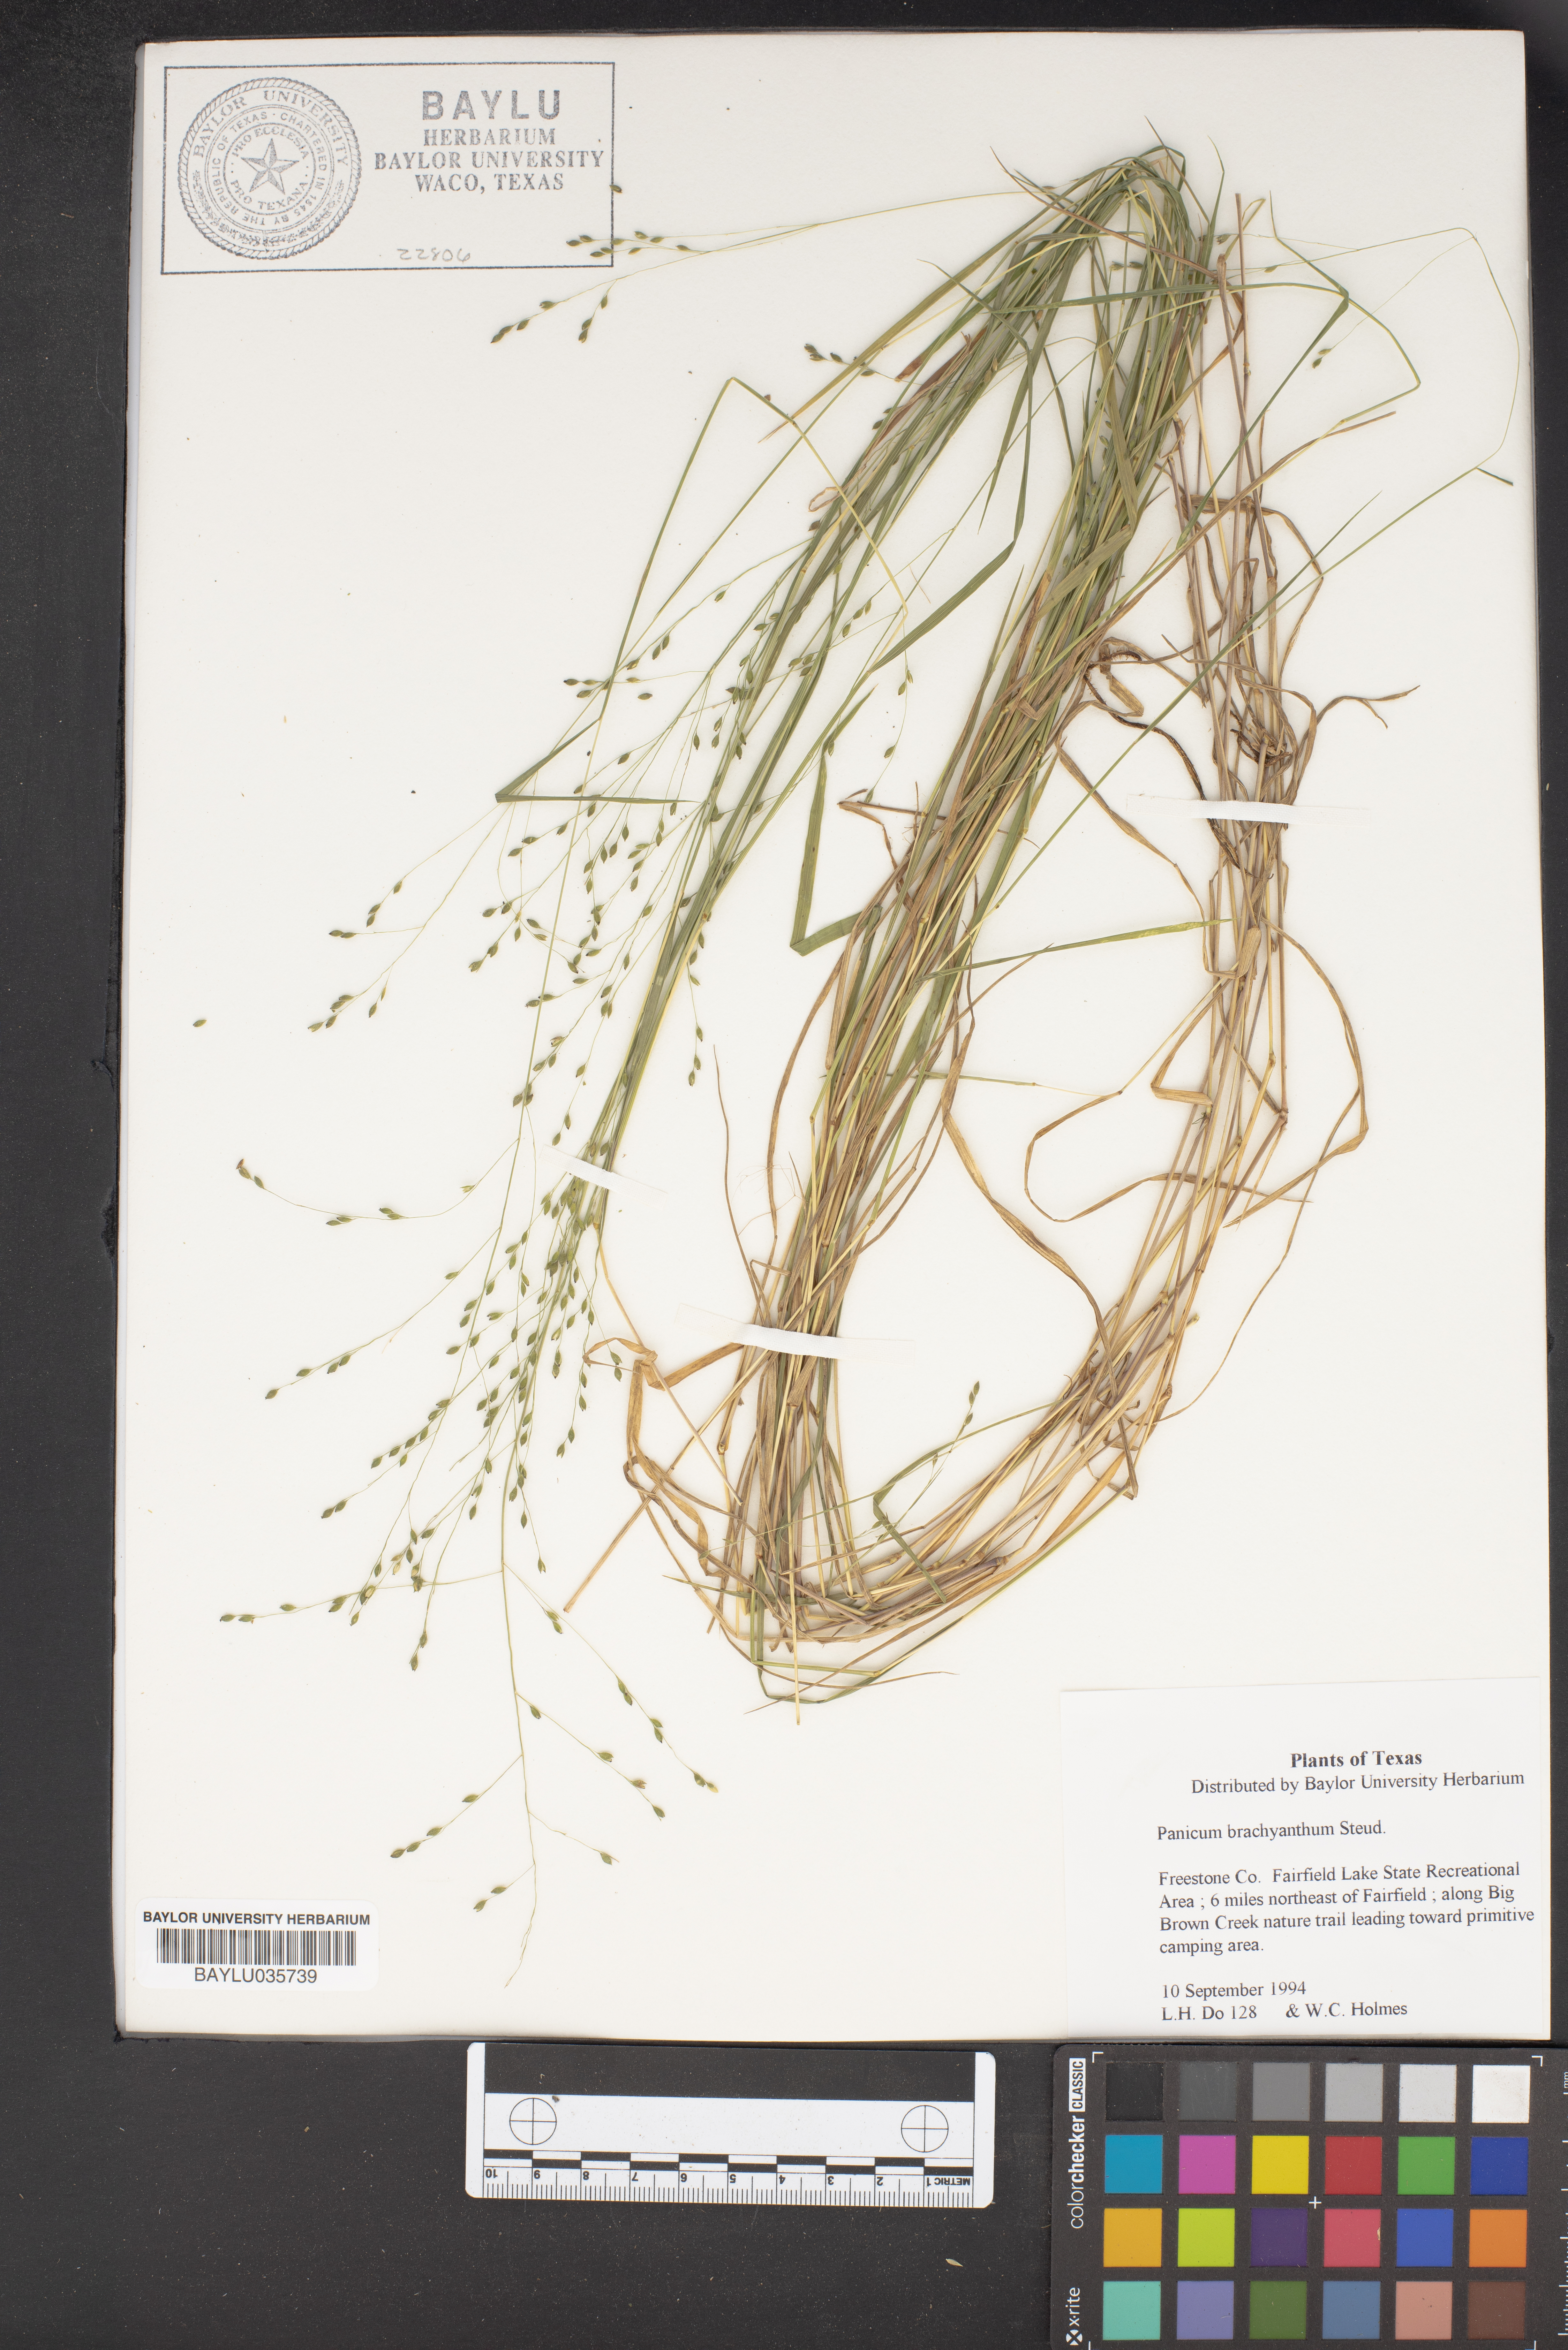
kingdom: Plantae
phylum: Tracheophyta
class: Liliopsida
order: Poales
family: Poaceae
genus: Kellochloa
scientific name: Kellochloa brachyantha
